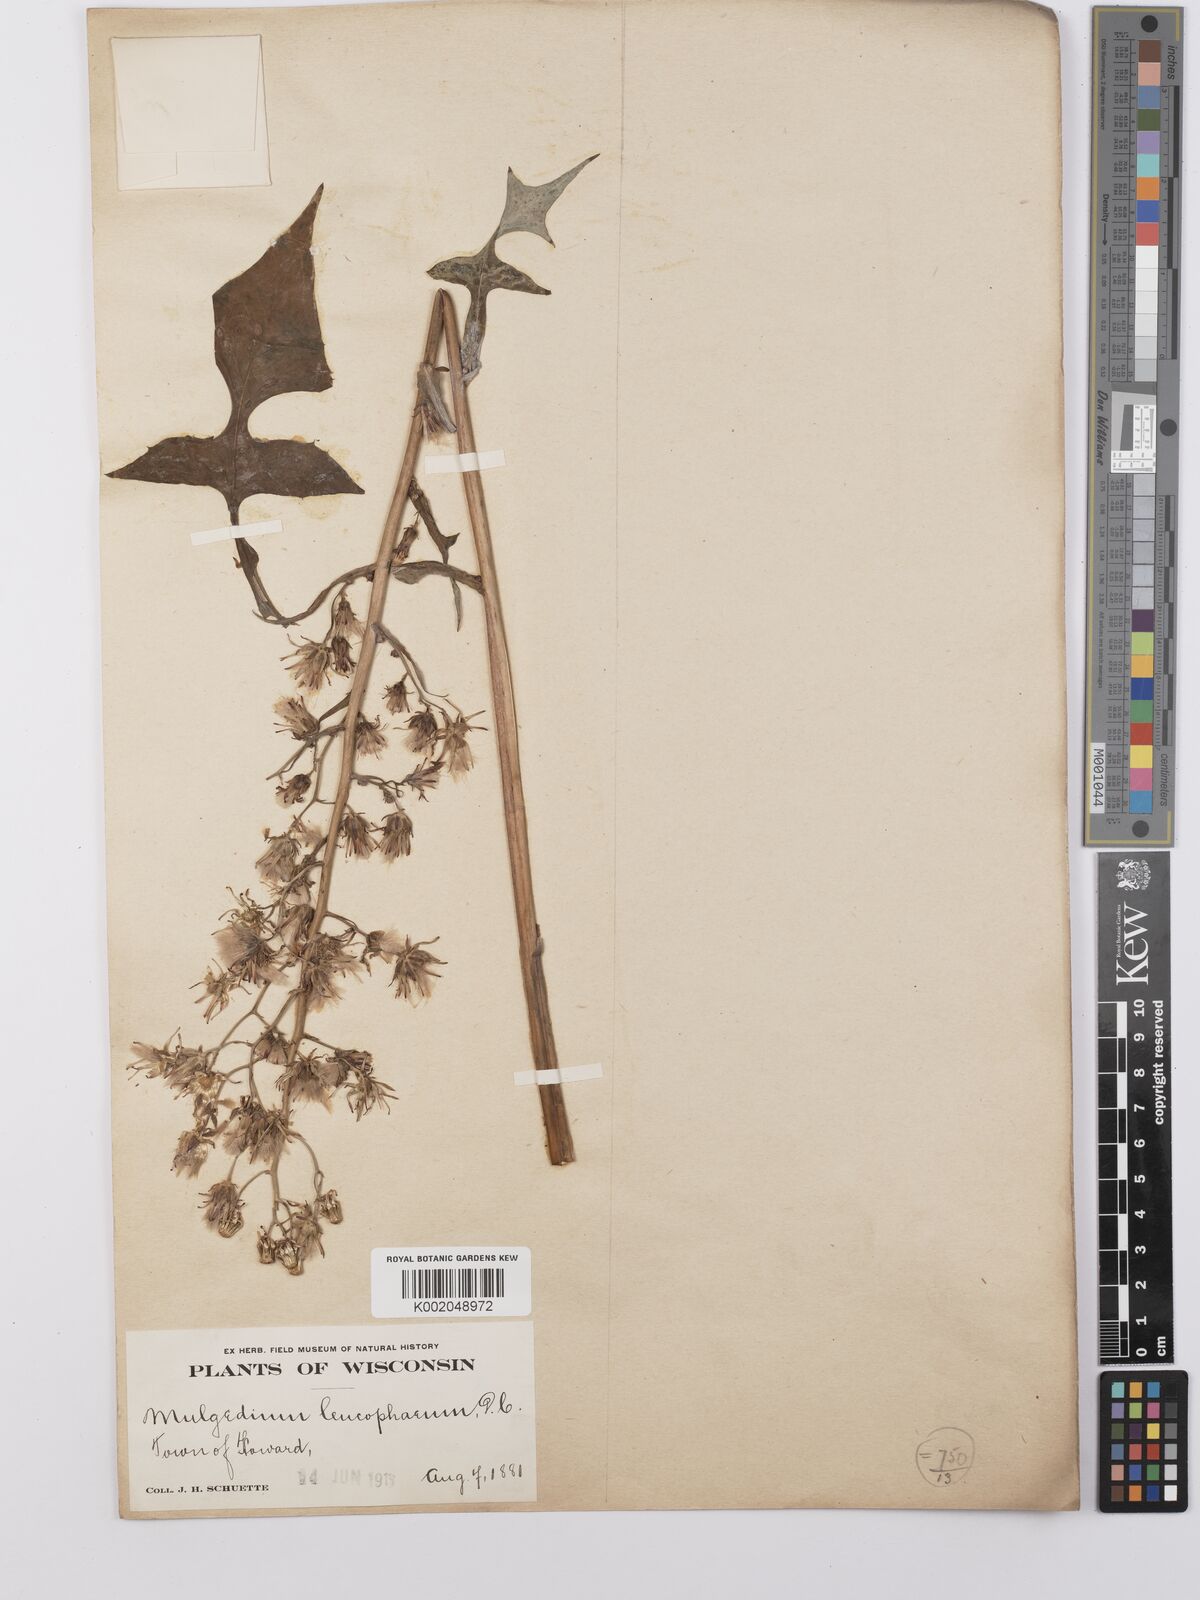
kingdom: Plantae
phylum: Tracheophyta
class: Magnoliopsida
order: Asterales
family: Asteraceae
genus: Lactuca
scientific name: Lactuca
